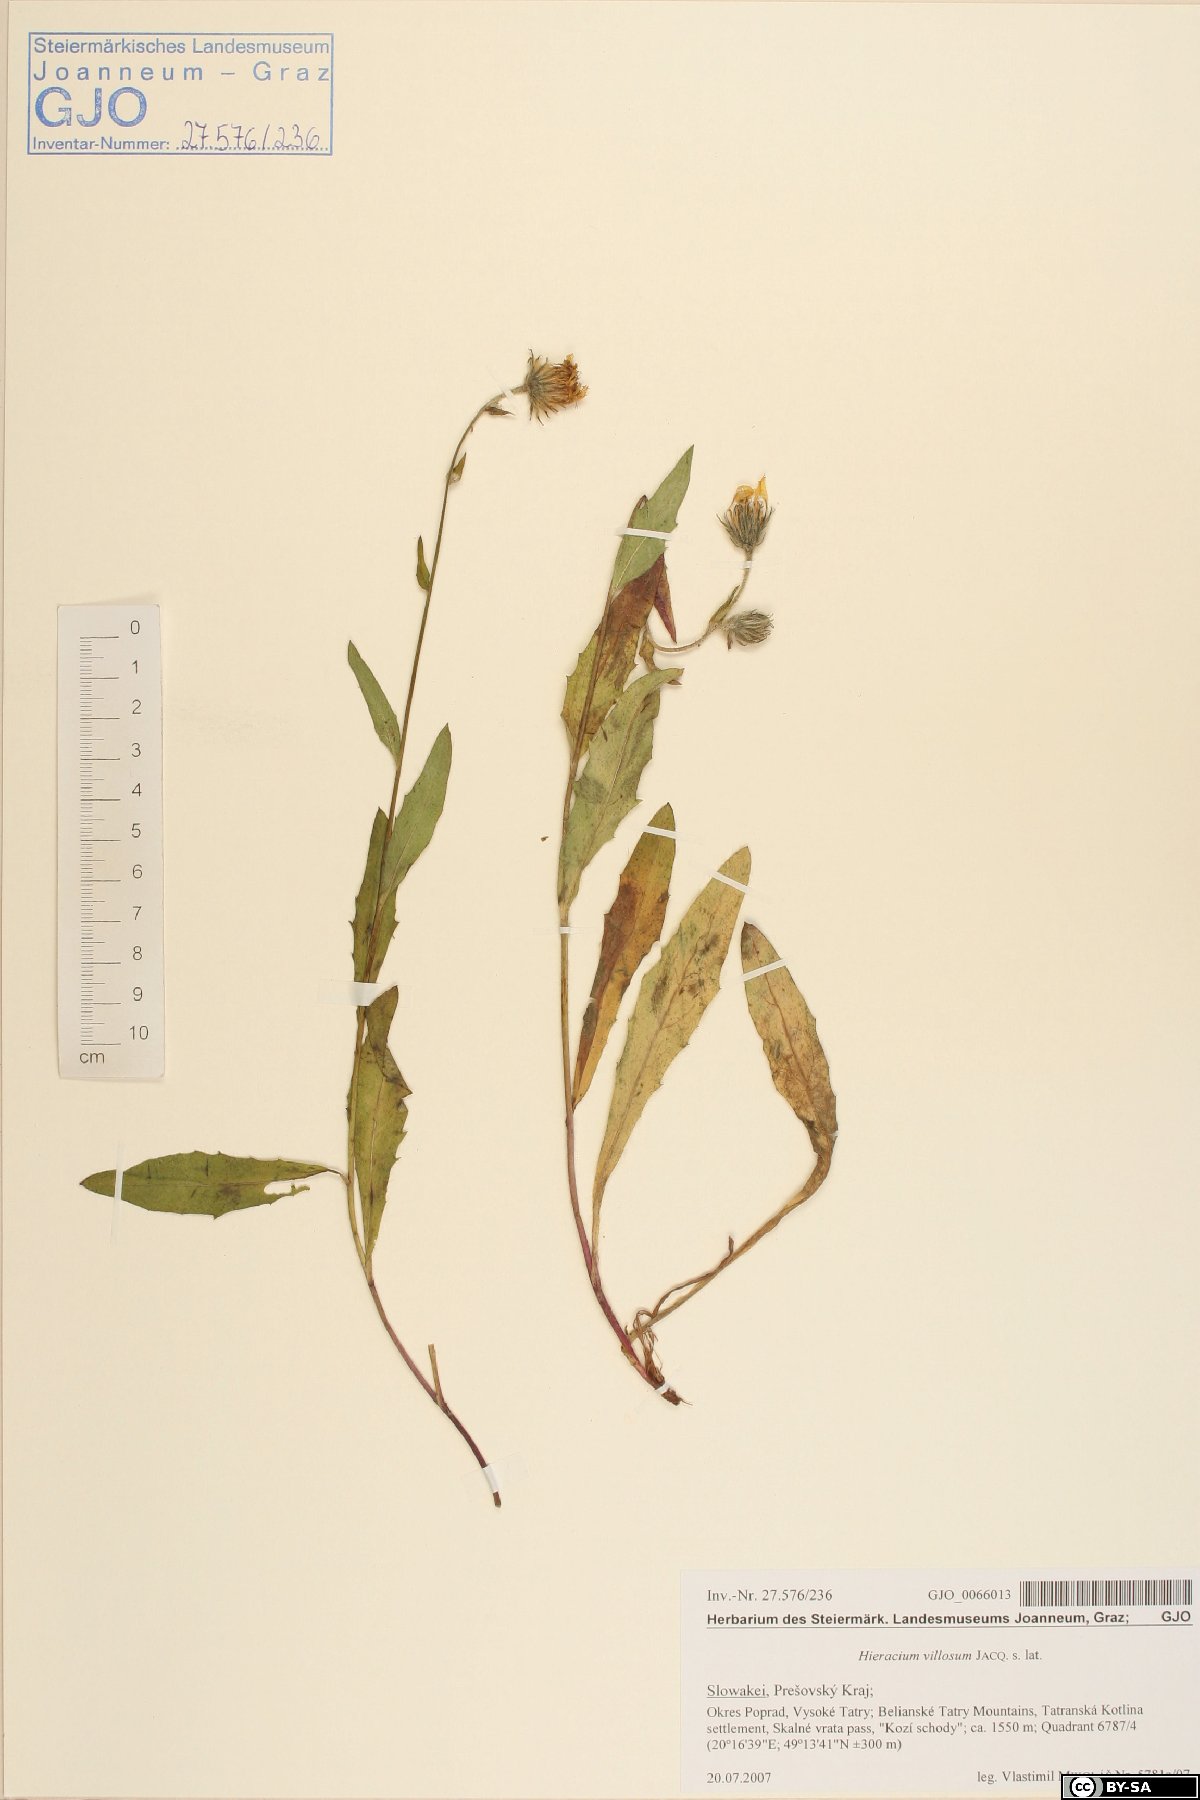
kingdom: Plantae
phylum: Tracheophyta
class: Magnoliopsida
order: Asterales
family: Asteraceae
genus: Hieracium
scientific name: Hieracium villosum
